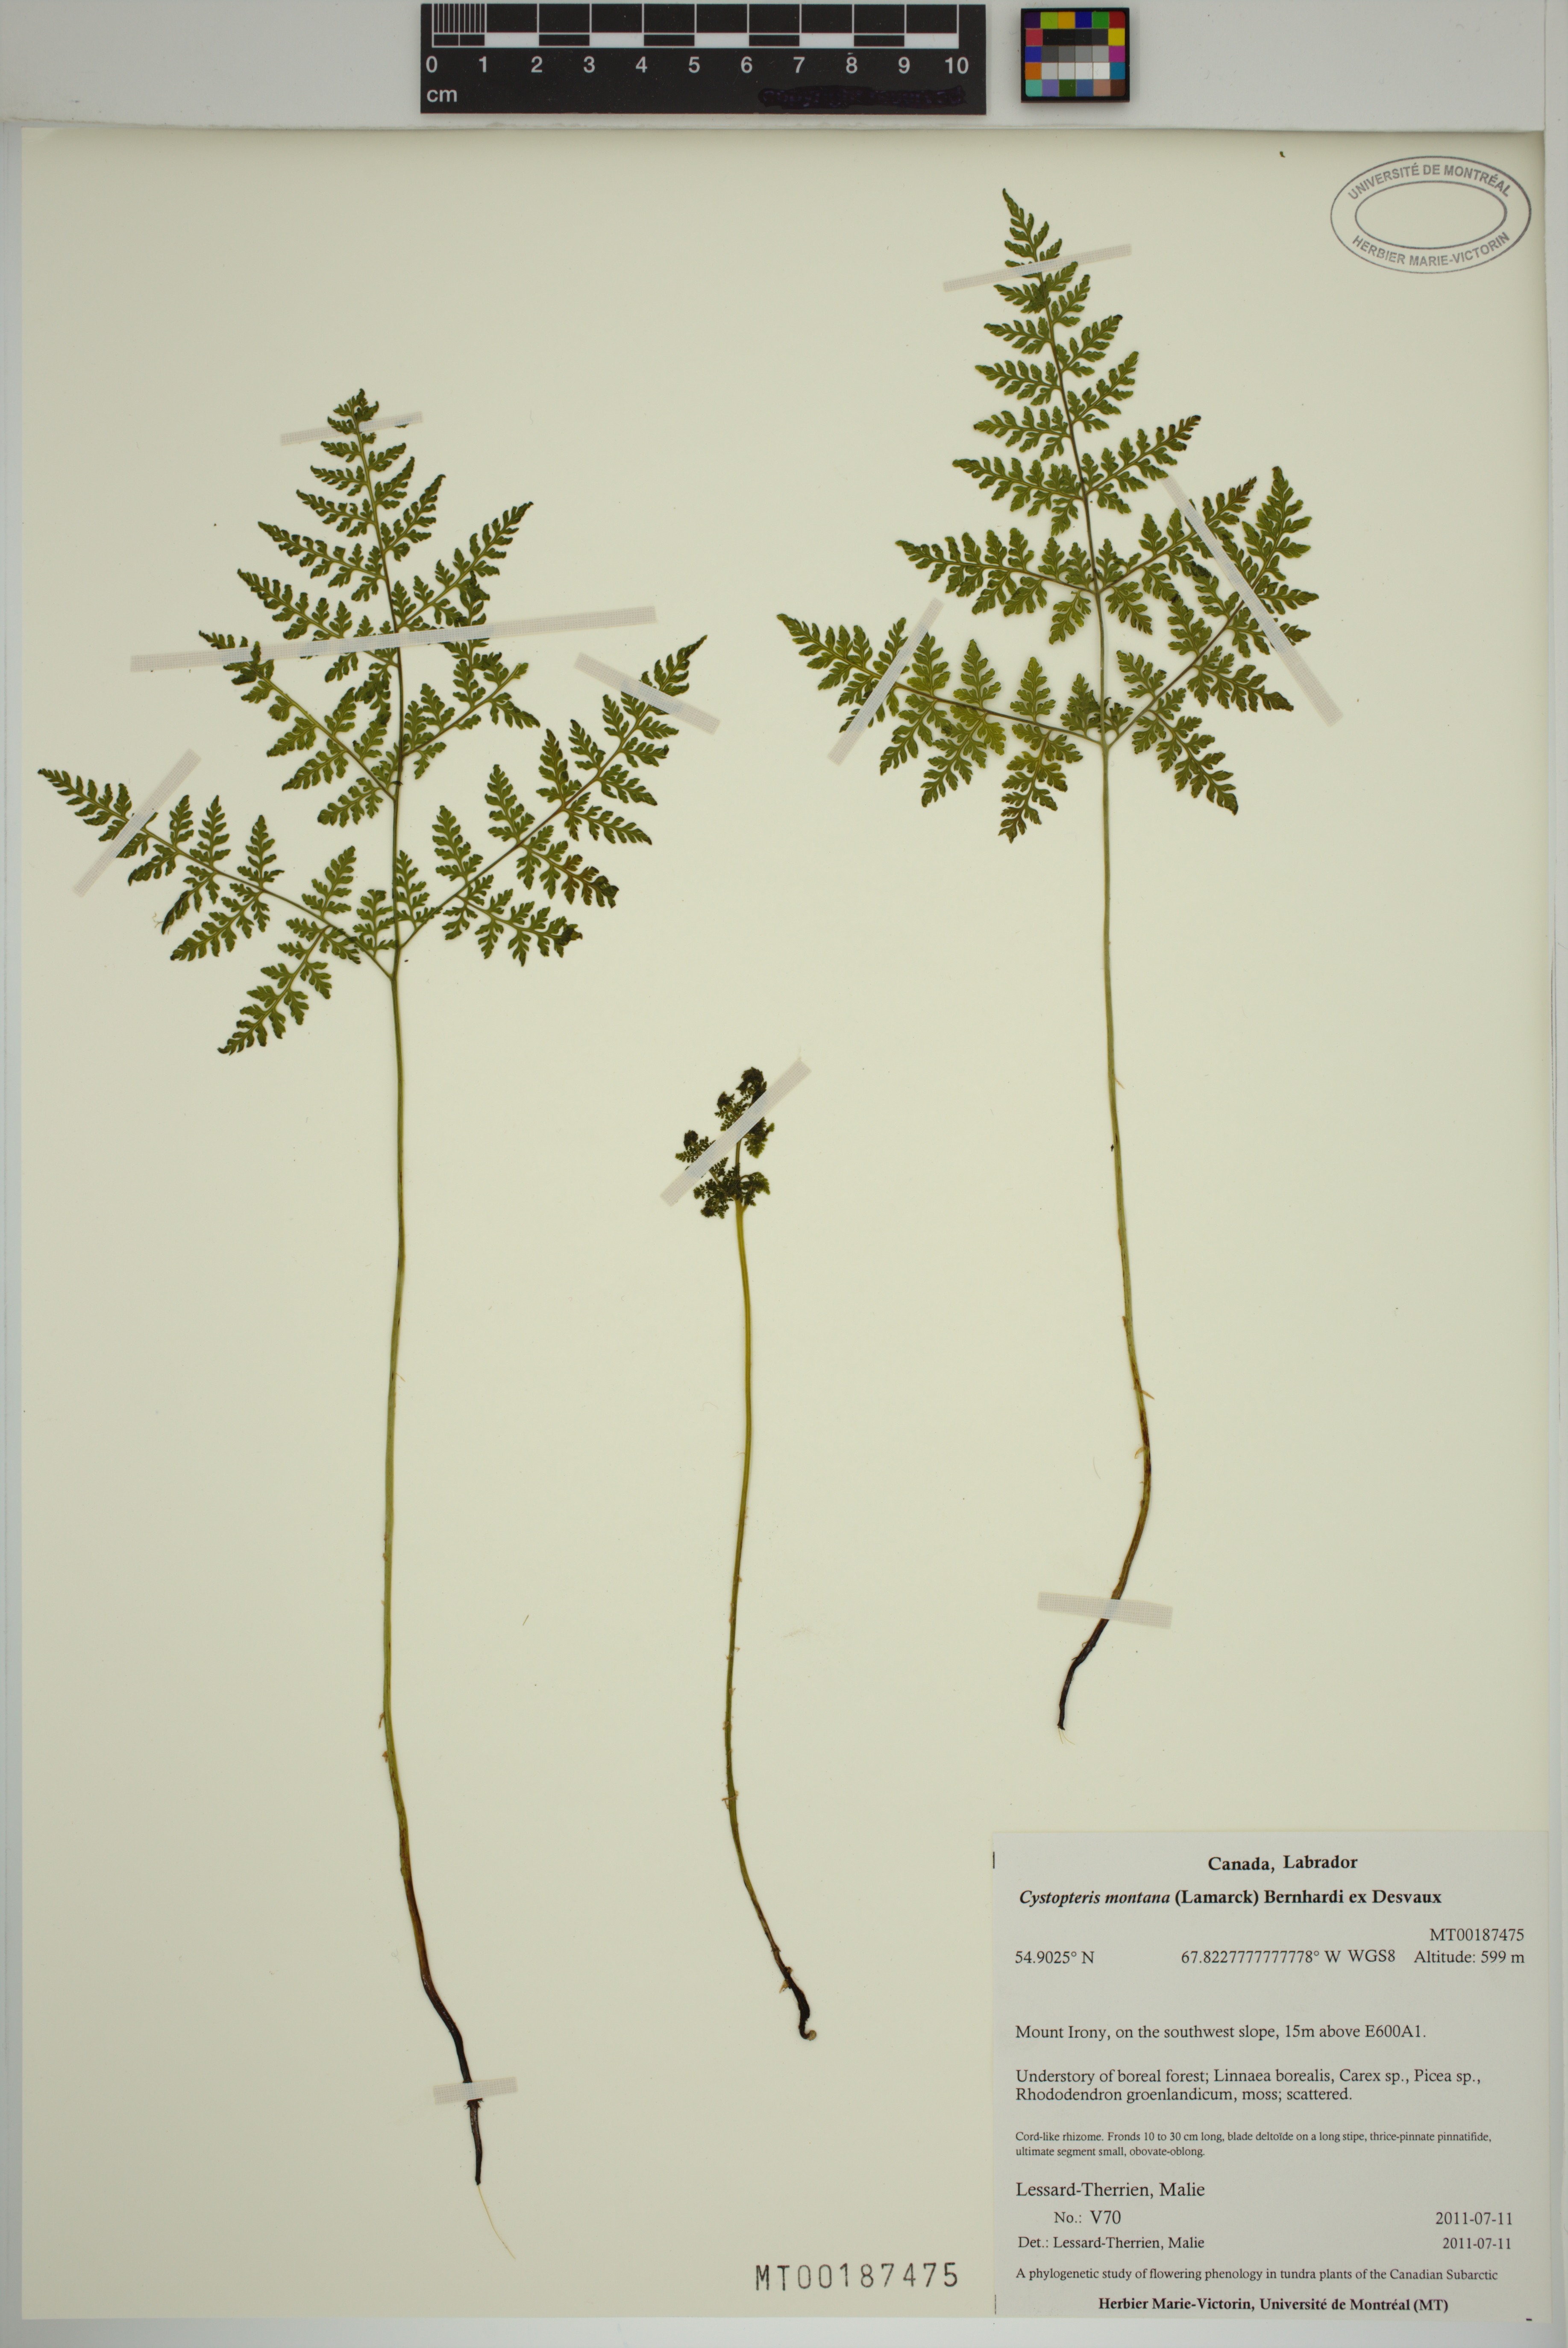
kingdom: Plantae
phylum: Tracheophyta
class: Polypodiopsida
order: Polypodiales
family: Cystopteridaceae
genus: Cystopteris
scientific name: Cystopteris montana
